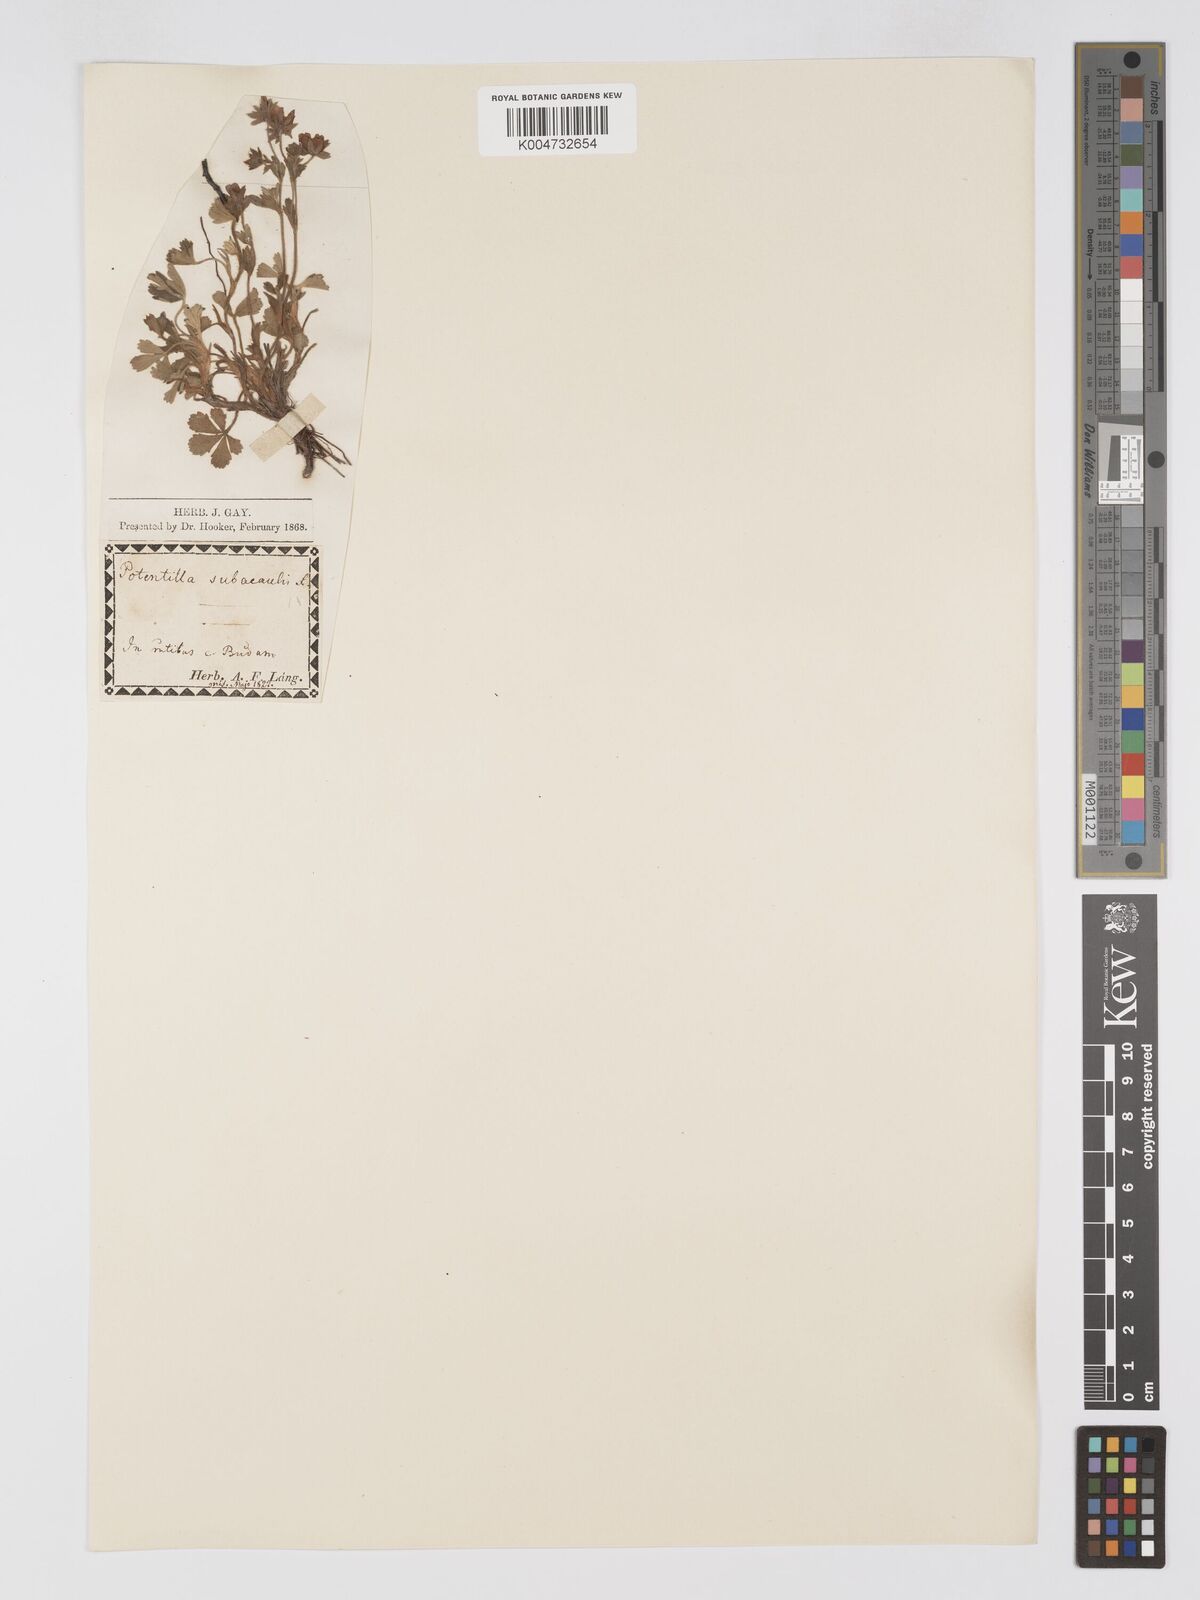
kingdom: Plantae
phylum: Tracheophyta
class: Magnoliopsida
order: Rosales
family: Rosaceae
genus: Potentilla
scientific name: Potentilla cinerea
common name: Ashy cinquefoil
